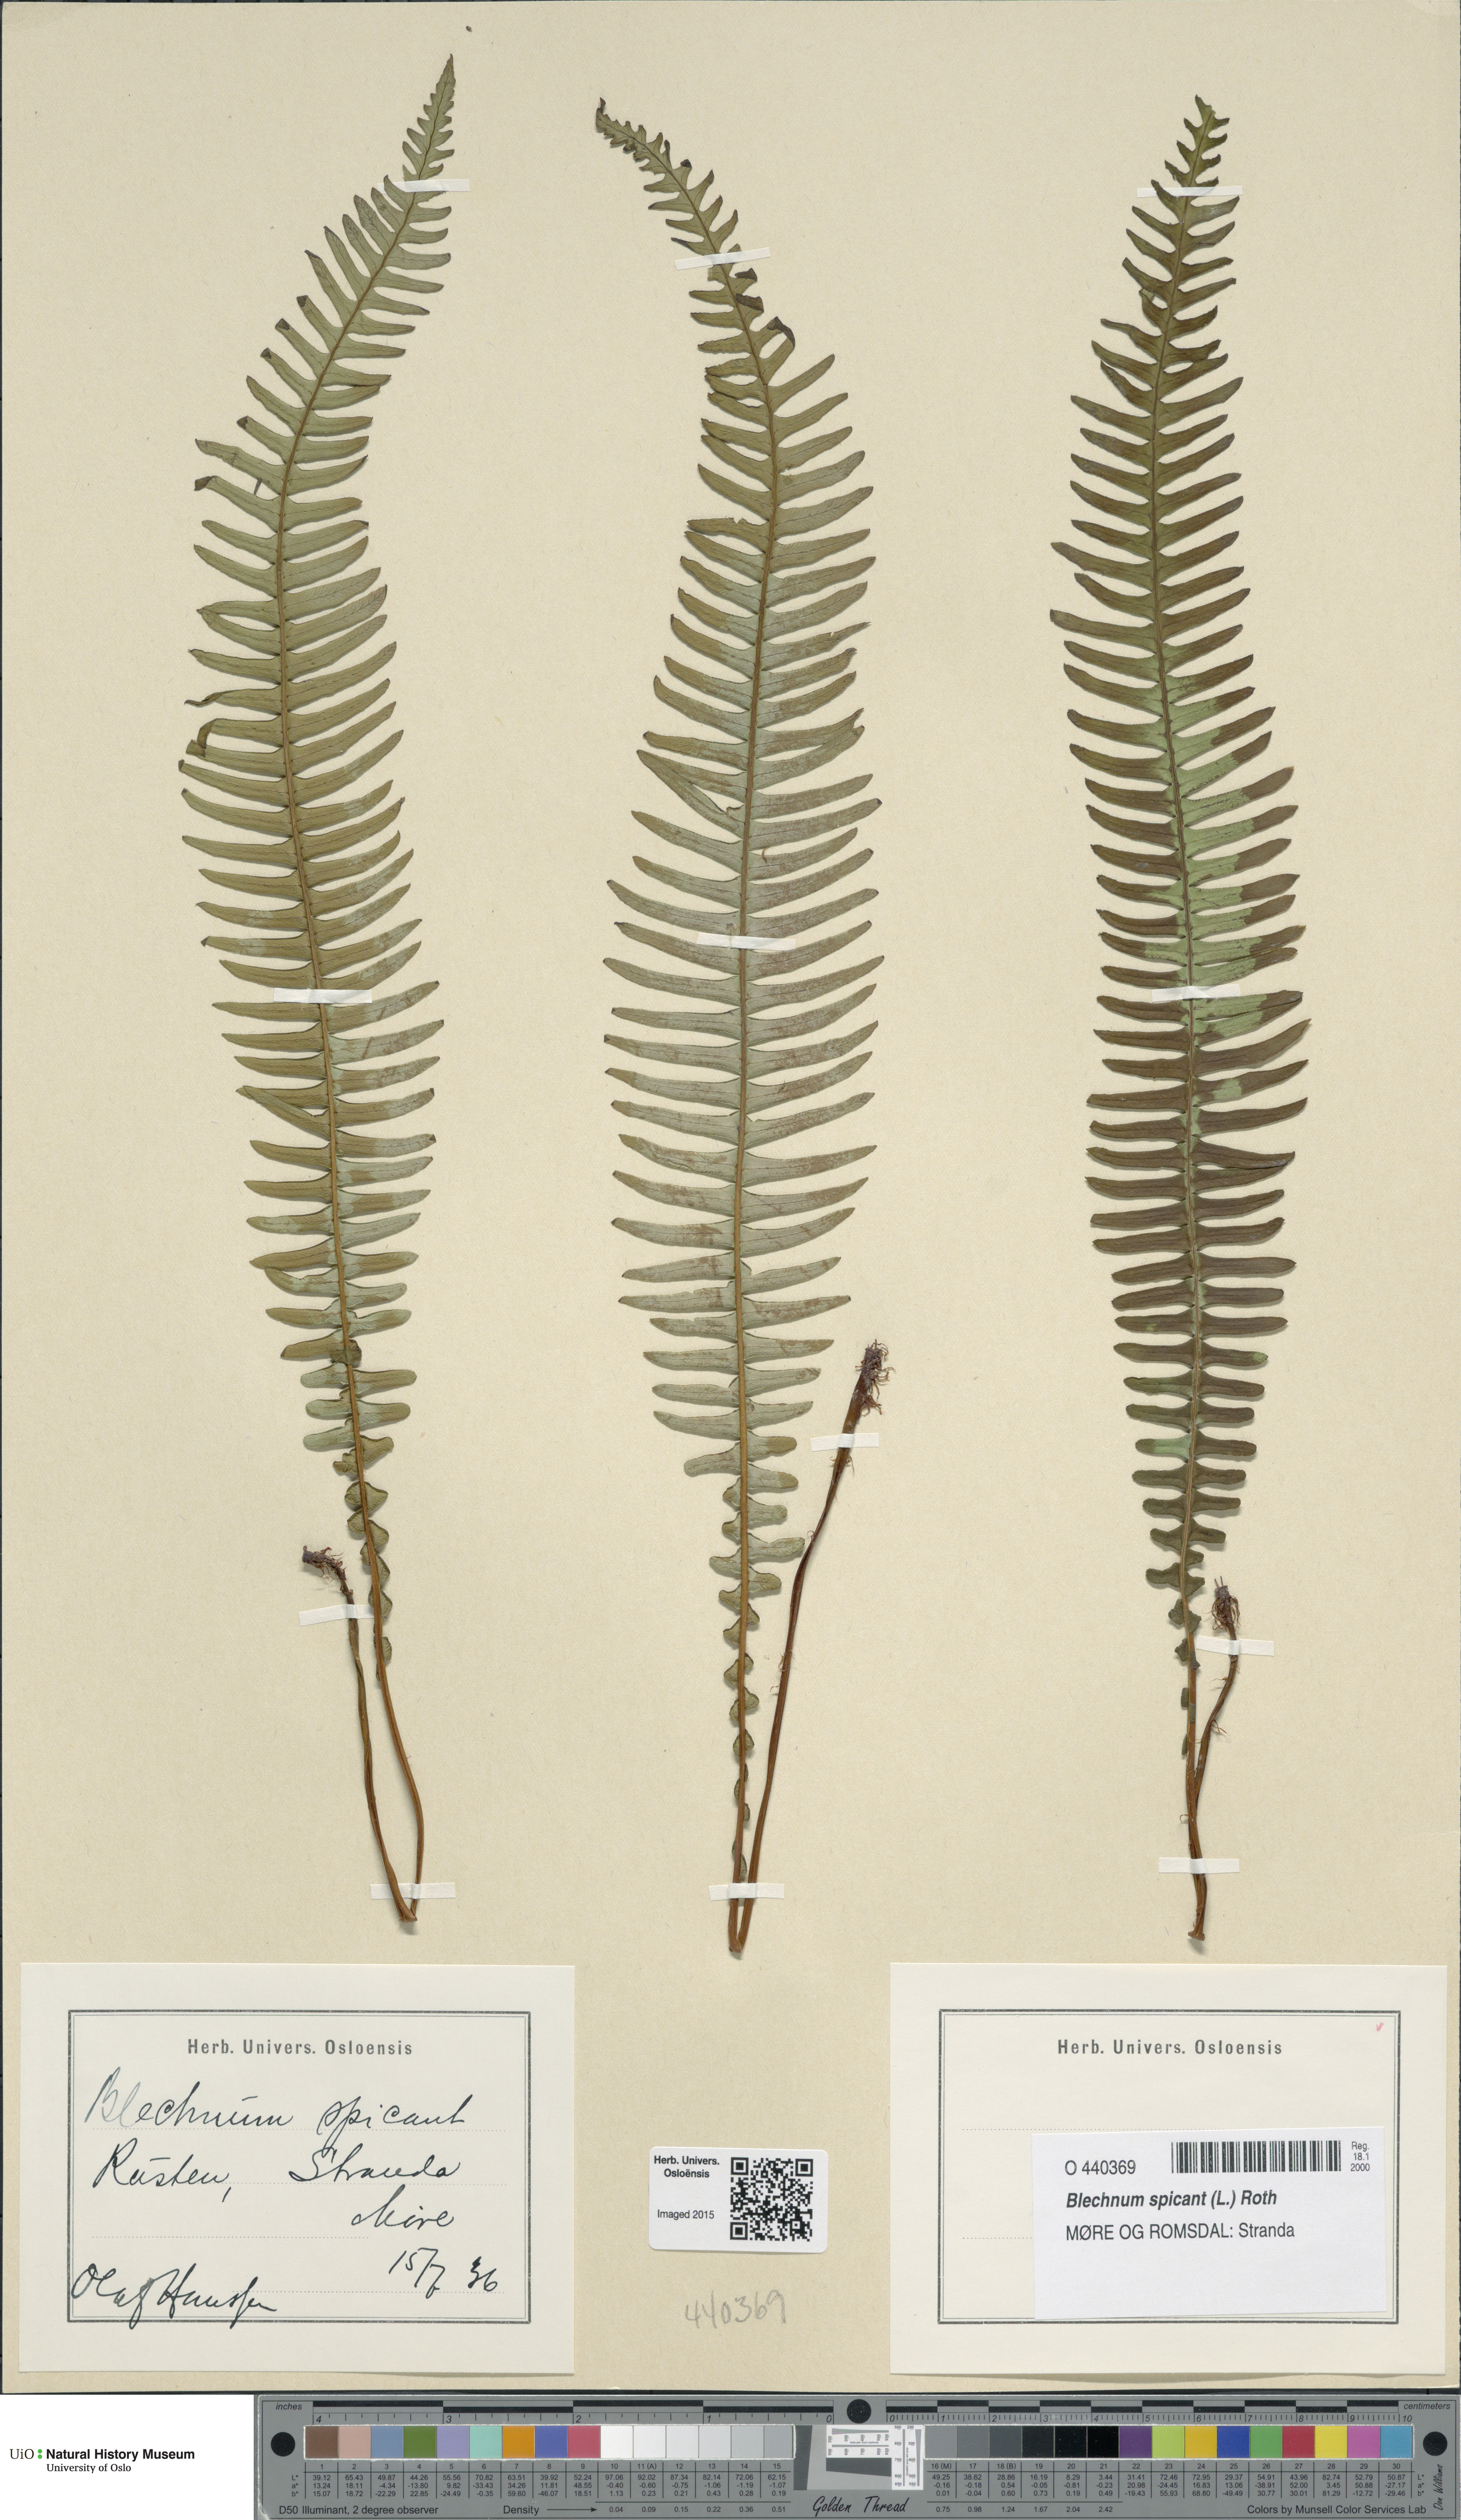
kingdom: Plantae
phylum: Tracheophyta
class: Polypodiopsida
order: Polypodiales
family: Blechnaceae
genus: Struthiopteris
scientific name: Struthiopteris spicant
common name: Deer fern
